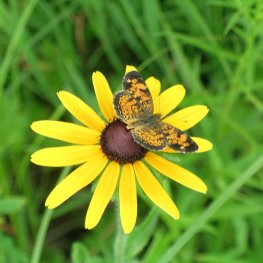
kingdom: Animalia
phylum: Arthropoda
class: Insecta
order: Lepidoptera
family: Nymphalidae
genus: Phyciodes
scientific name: Phyciodes tharos
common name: Pearl Crescent
